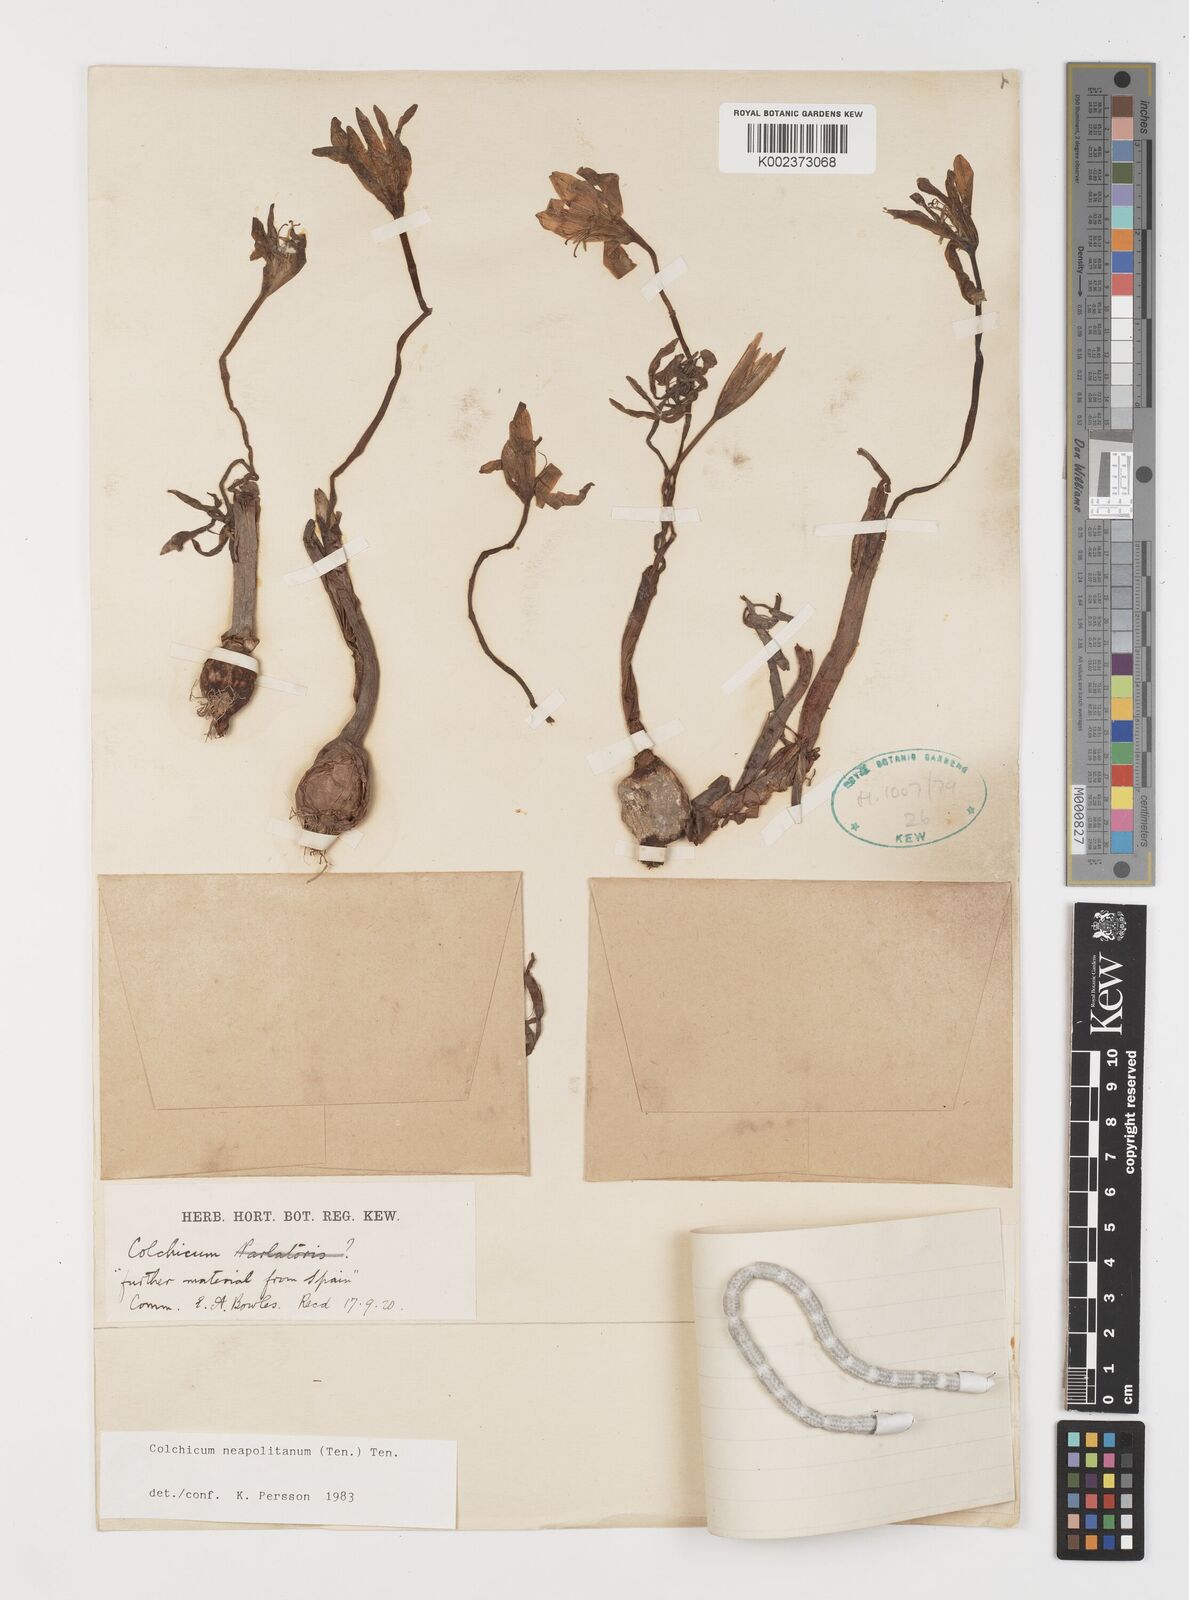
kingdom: Plantae
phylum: Tracheophyta
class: Liliopsida
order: Liliales
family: Colchicaceae
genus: Colchicum
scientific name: Colchicum neapolitanum
